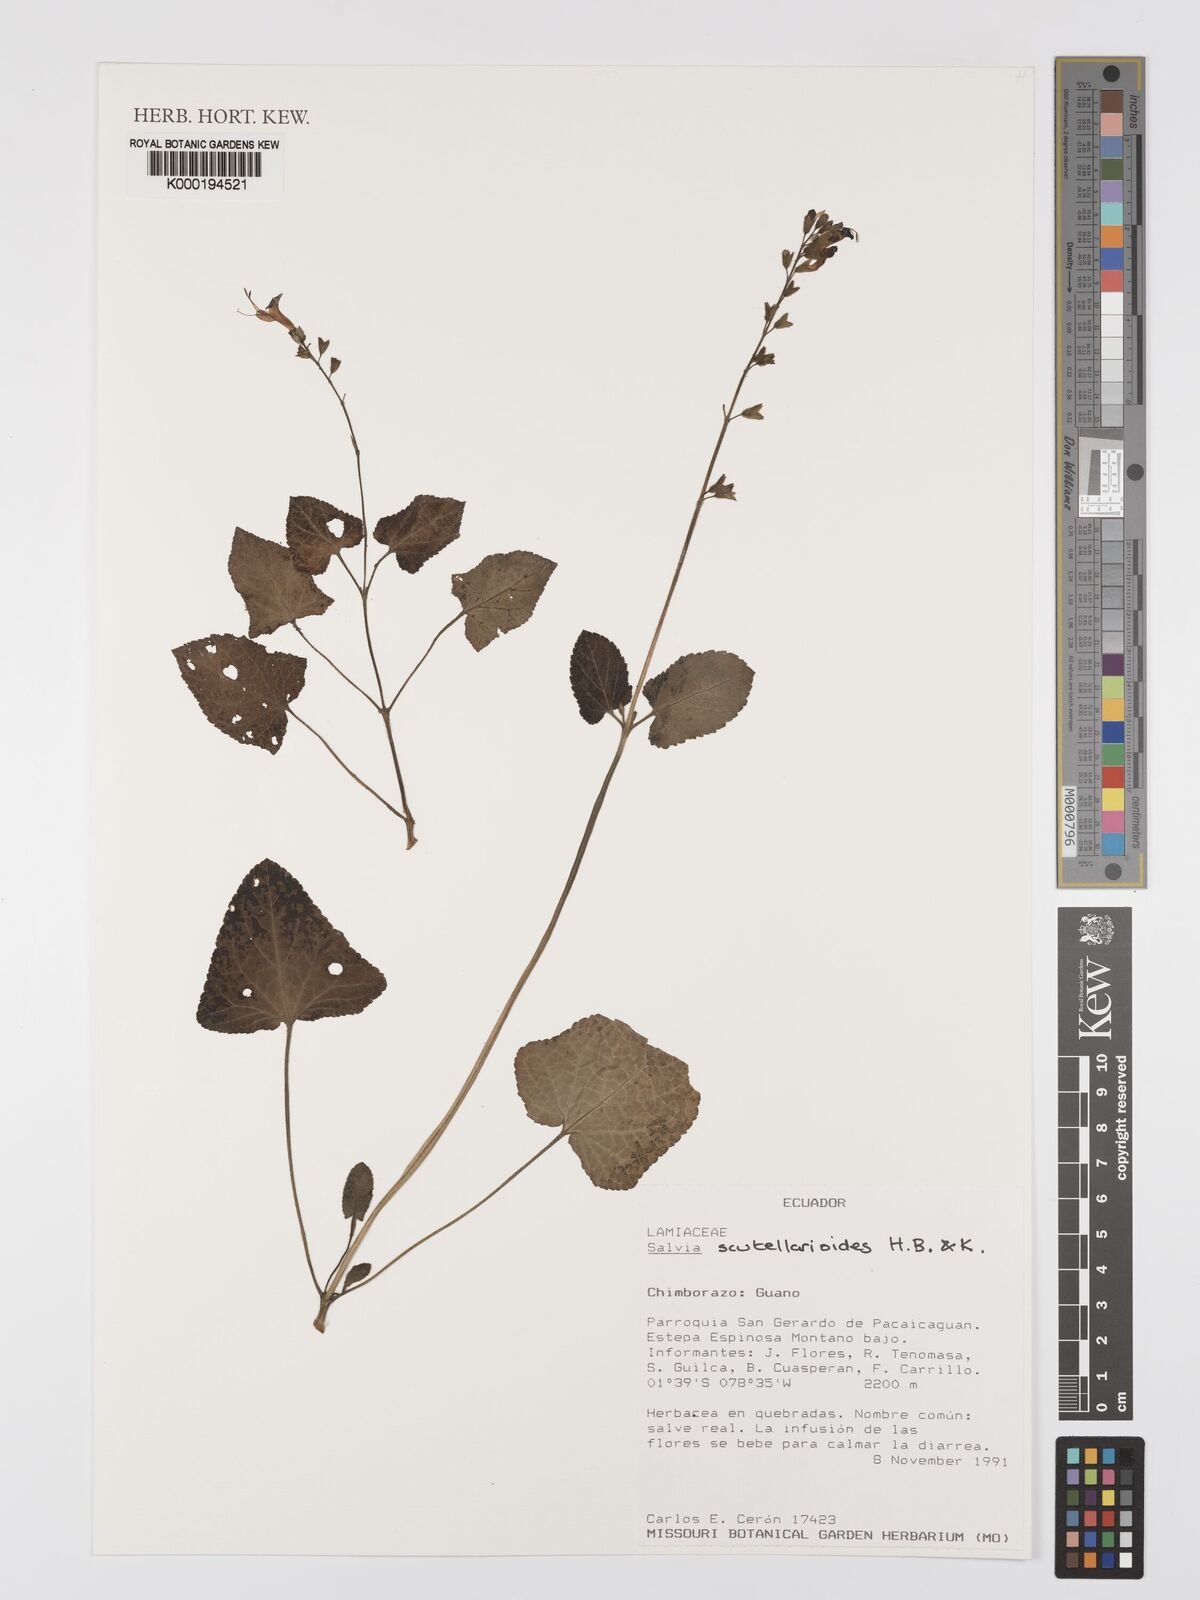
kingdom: Plantae
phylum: Tracheophyta
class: Magnoliopsida
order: Lamiales
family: Lamiaceae
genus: Salvia
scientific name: Salvia
